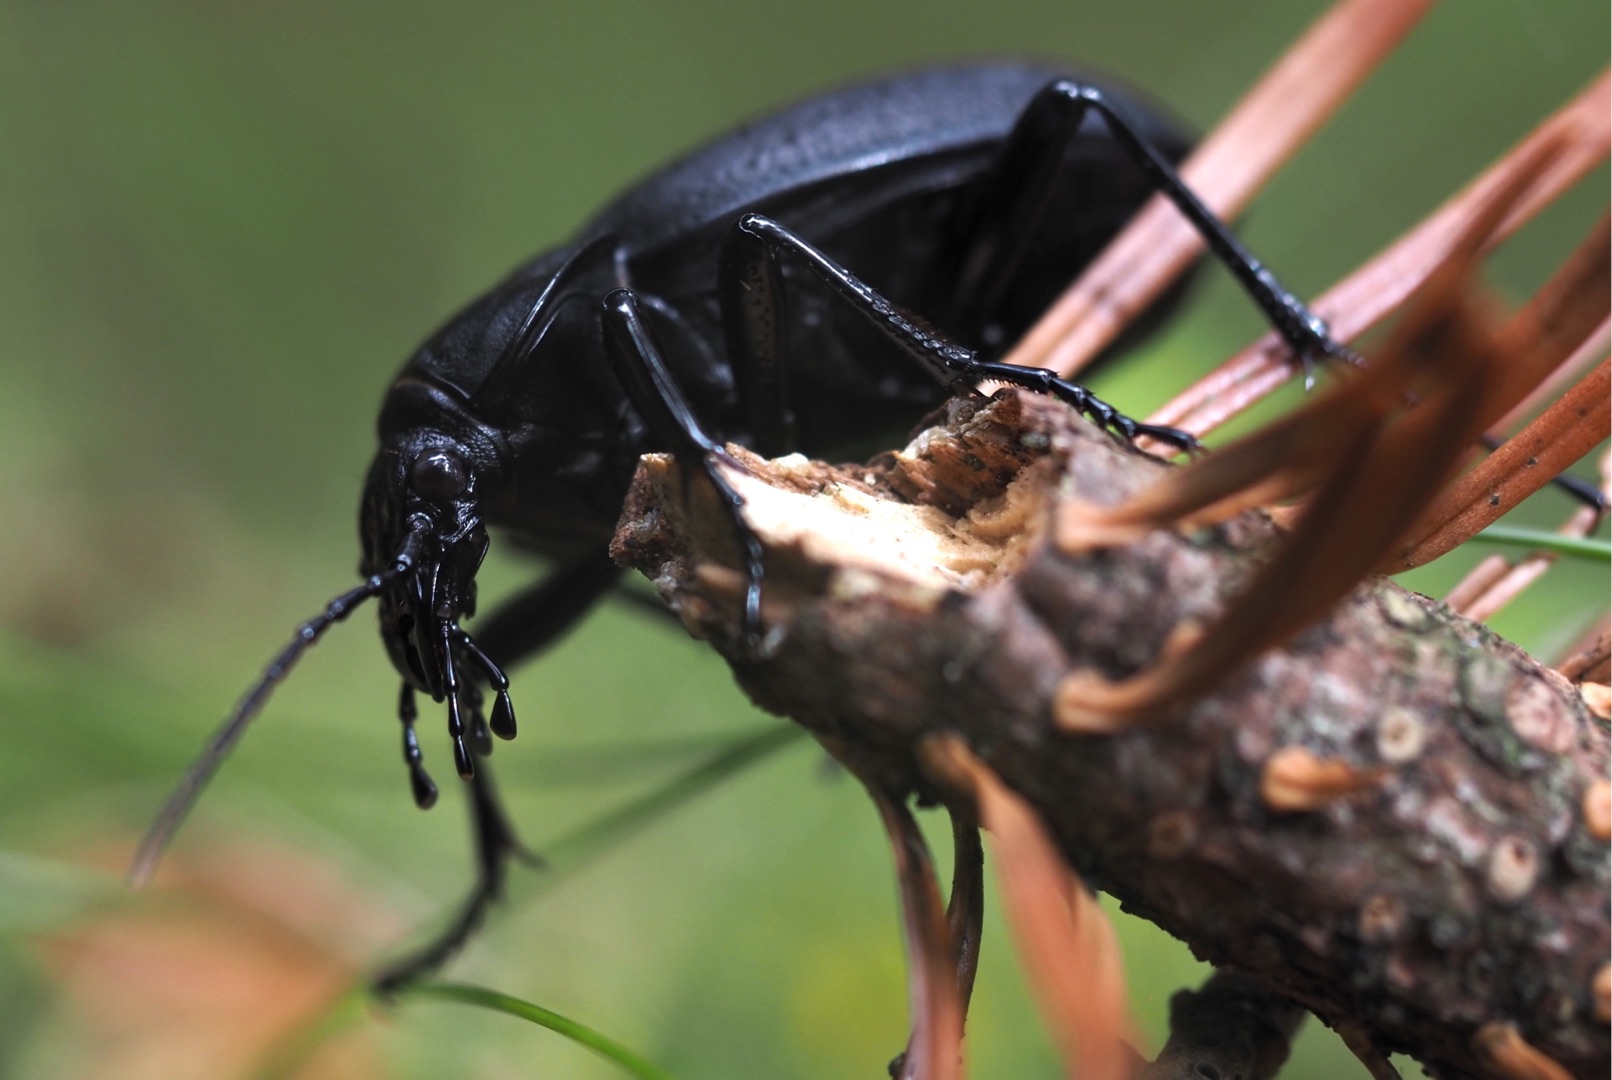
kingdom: Animalia
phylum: Arthropoda
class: Insecta
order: Coleoptera
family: Carabidae
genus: Carabus
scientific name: Carabus coriaceus
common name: Læderløber
